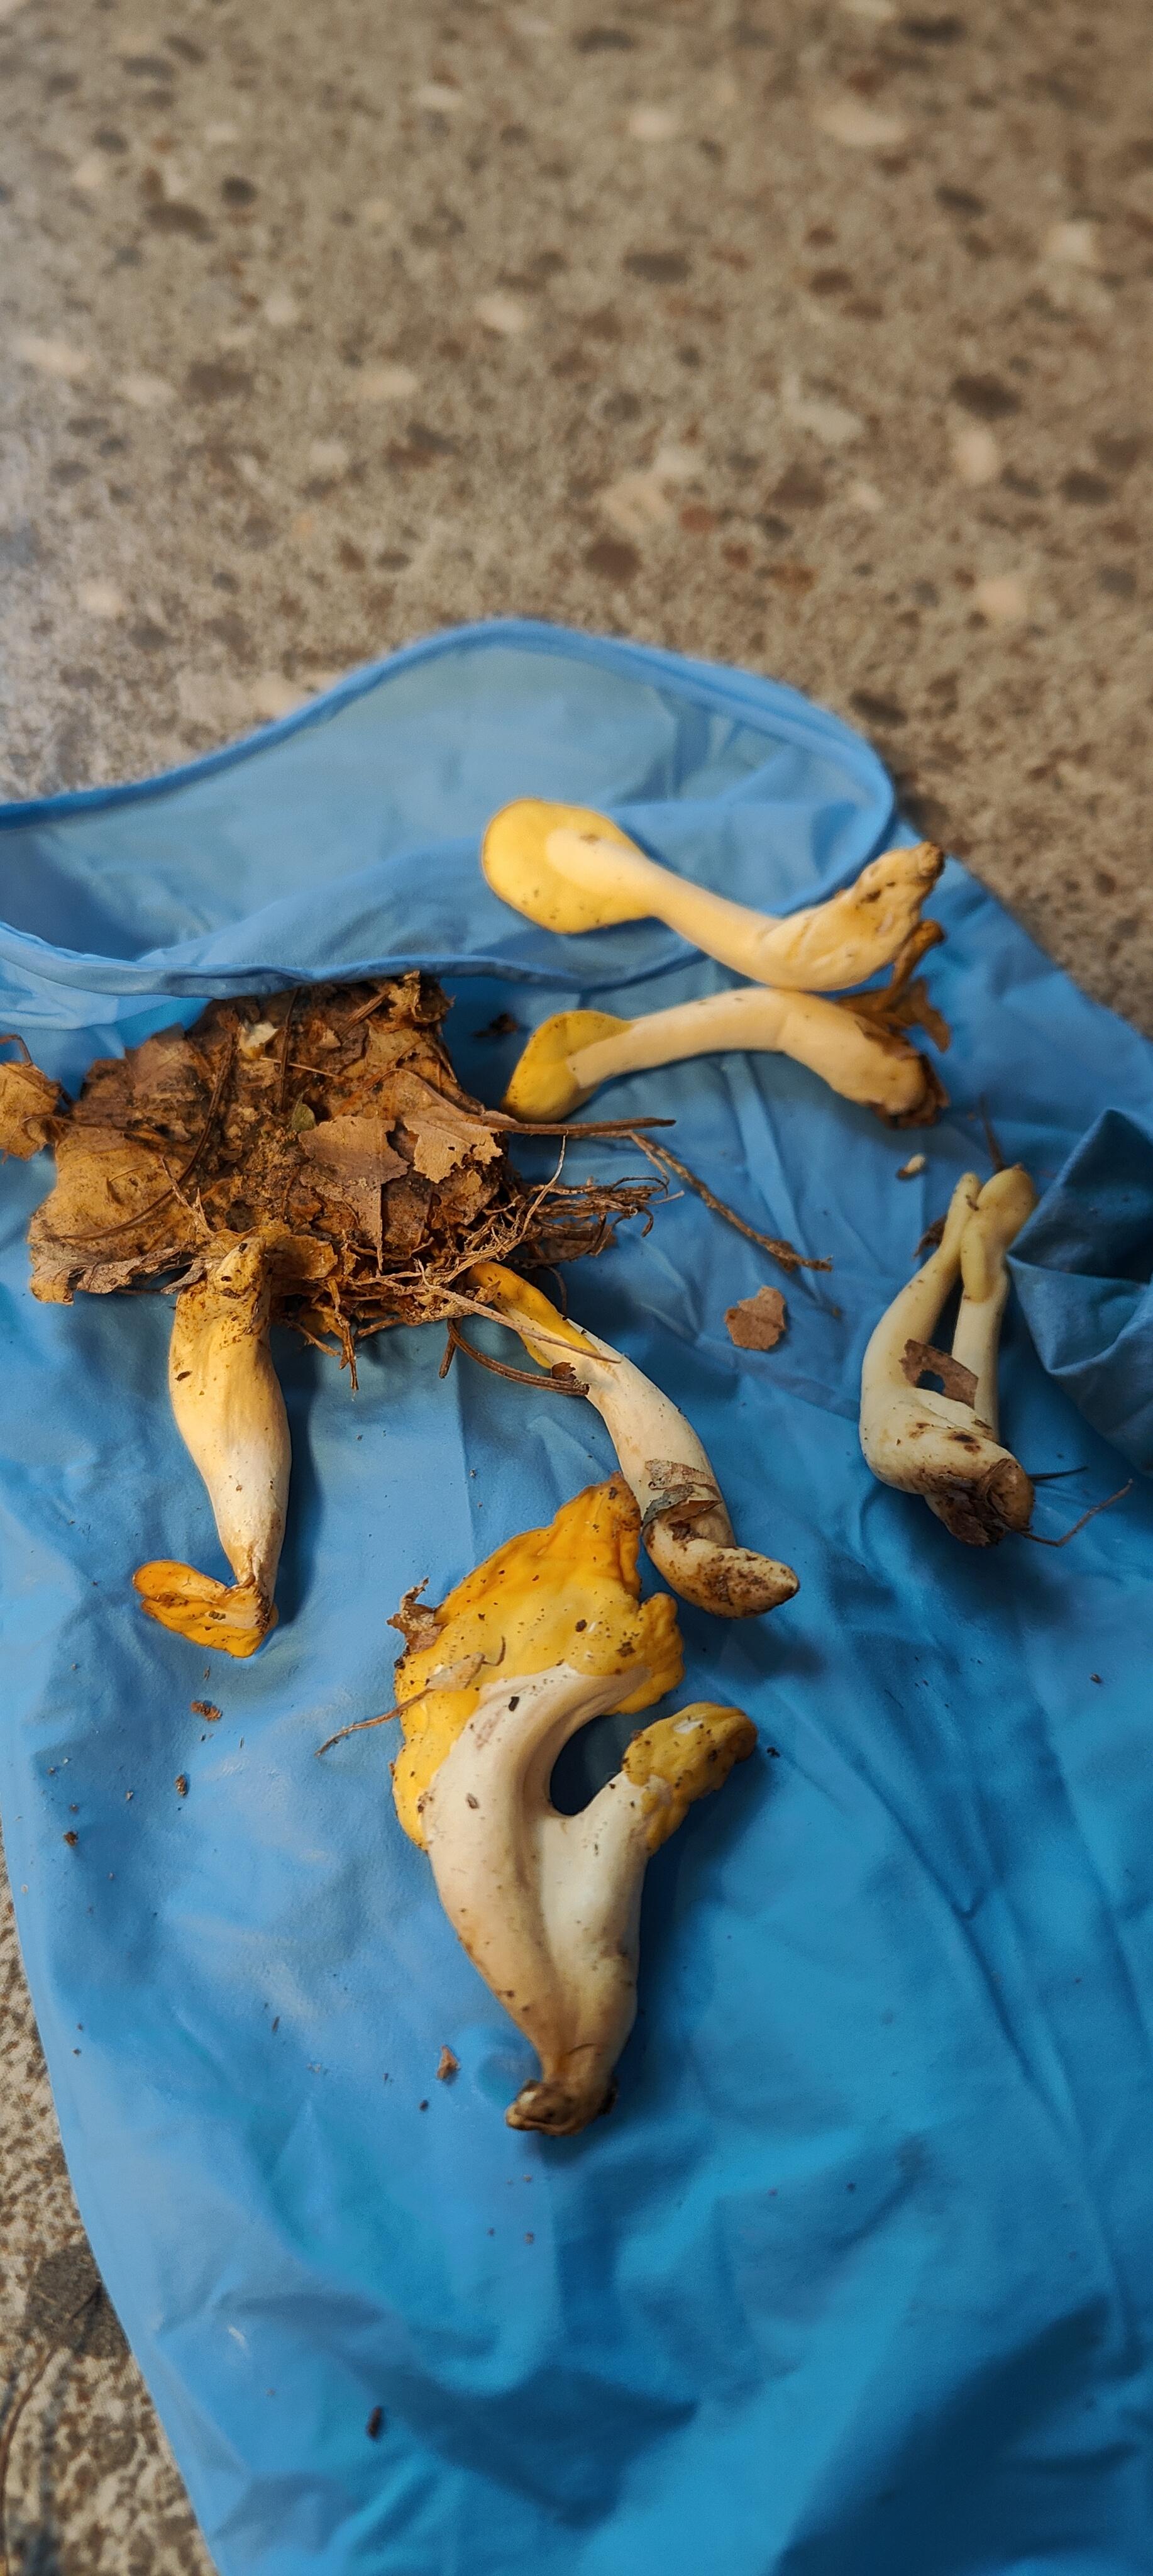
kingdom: Fungi
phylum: Ascomycota
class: Leotiomycetes
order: Rhytismatales
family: Cudoniaceae
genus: Spathularia
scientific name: Spathularia flavida
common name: gul spatelsvamp
